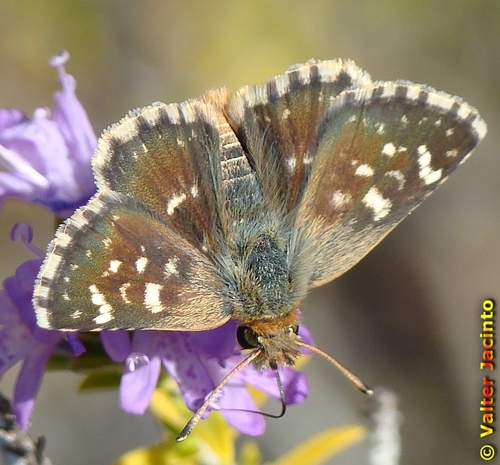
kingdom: Animalia
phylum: Arthropoda
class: Insecta
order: Lepidoptera
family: Hesperiidae
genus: Spialia
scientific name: Spialia sertorius
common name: Red underwing skipper
